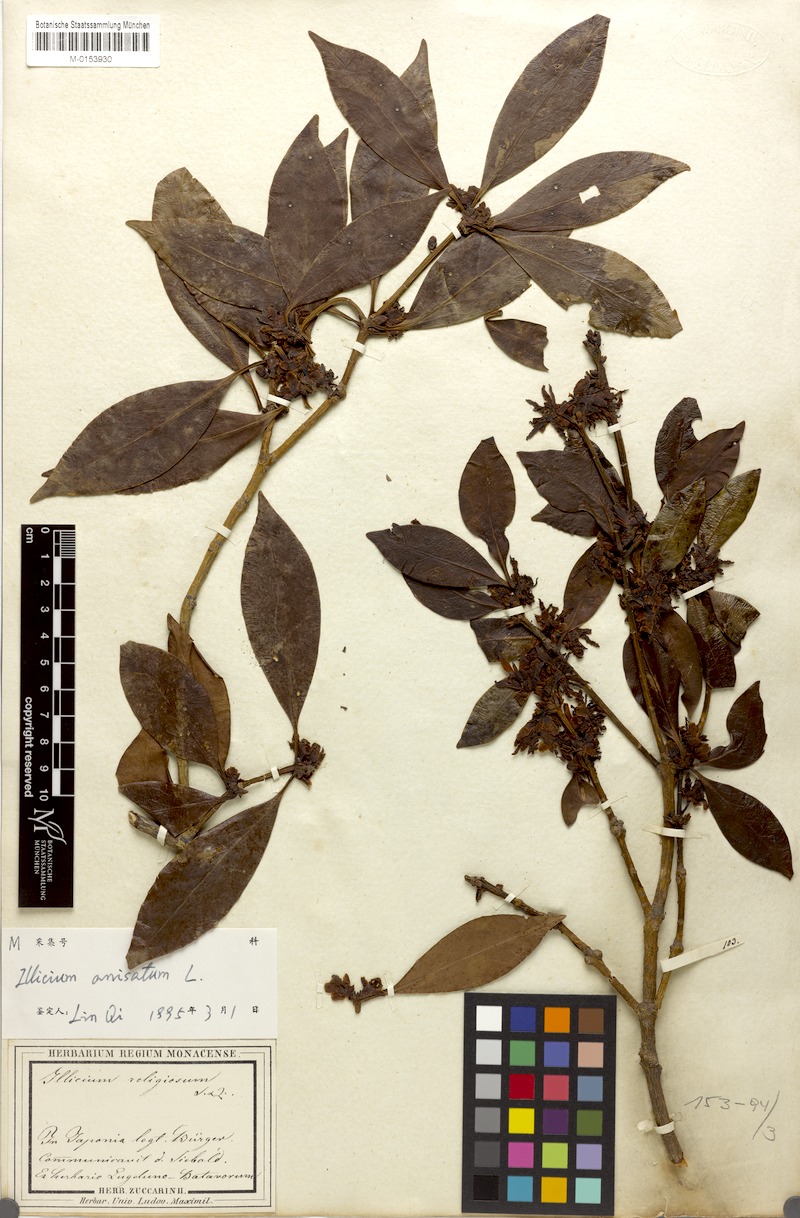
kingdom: Plantae
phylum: Tracheophyta
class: Magnoliopsida
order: Austrobaileyales
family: Schisandraceae
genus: Illicium
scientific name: Illicium anisatum
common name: Sacred anisetree
